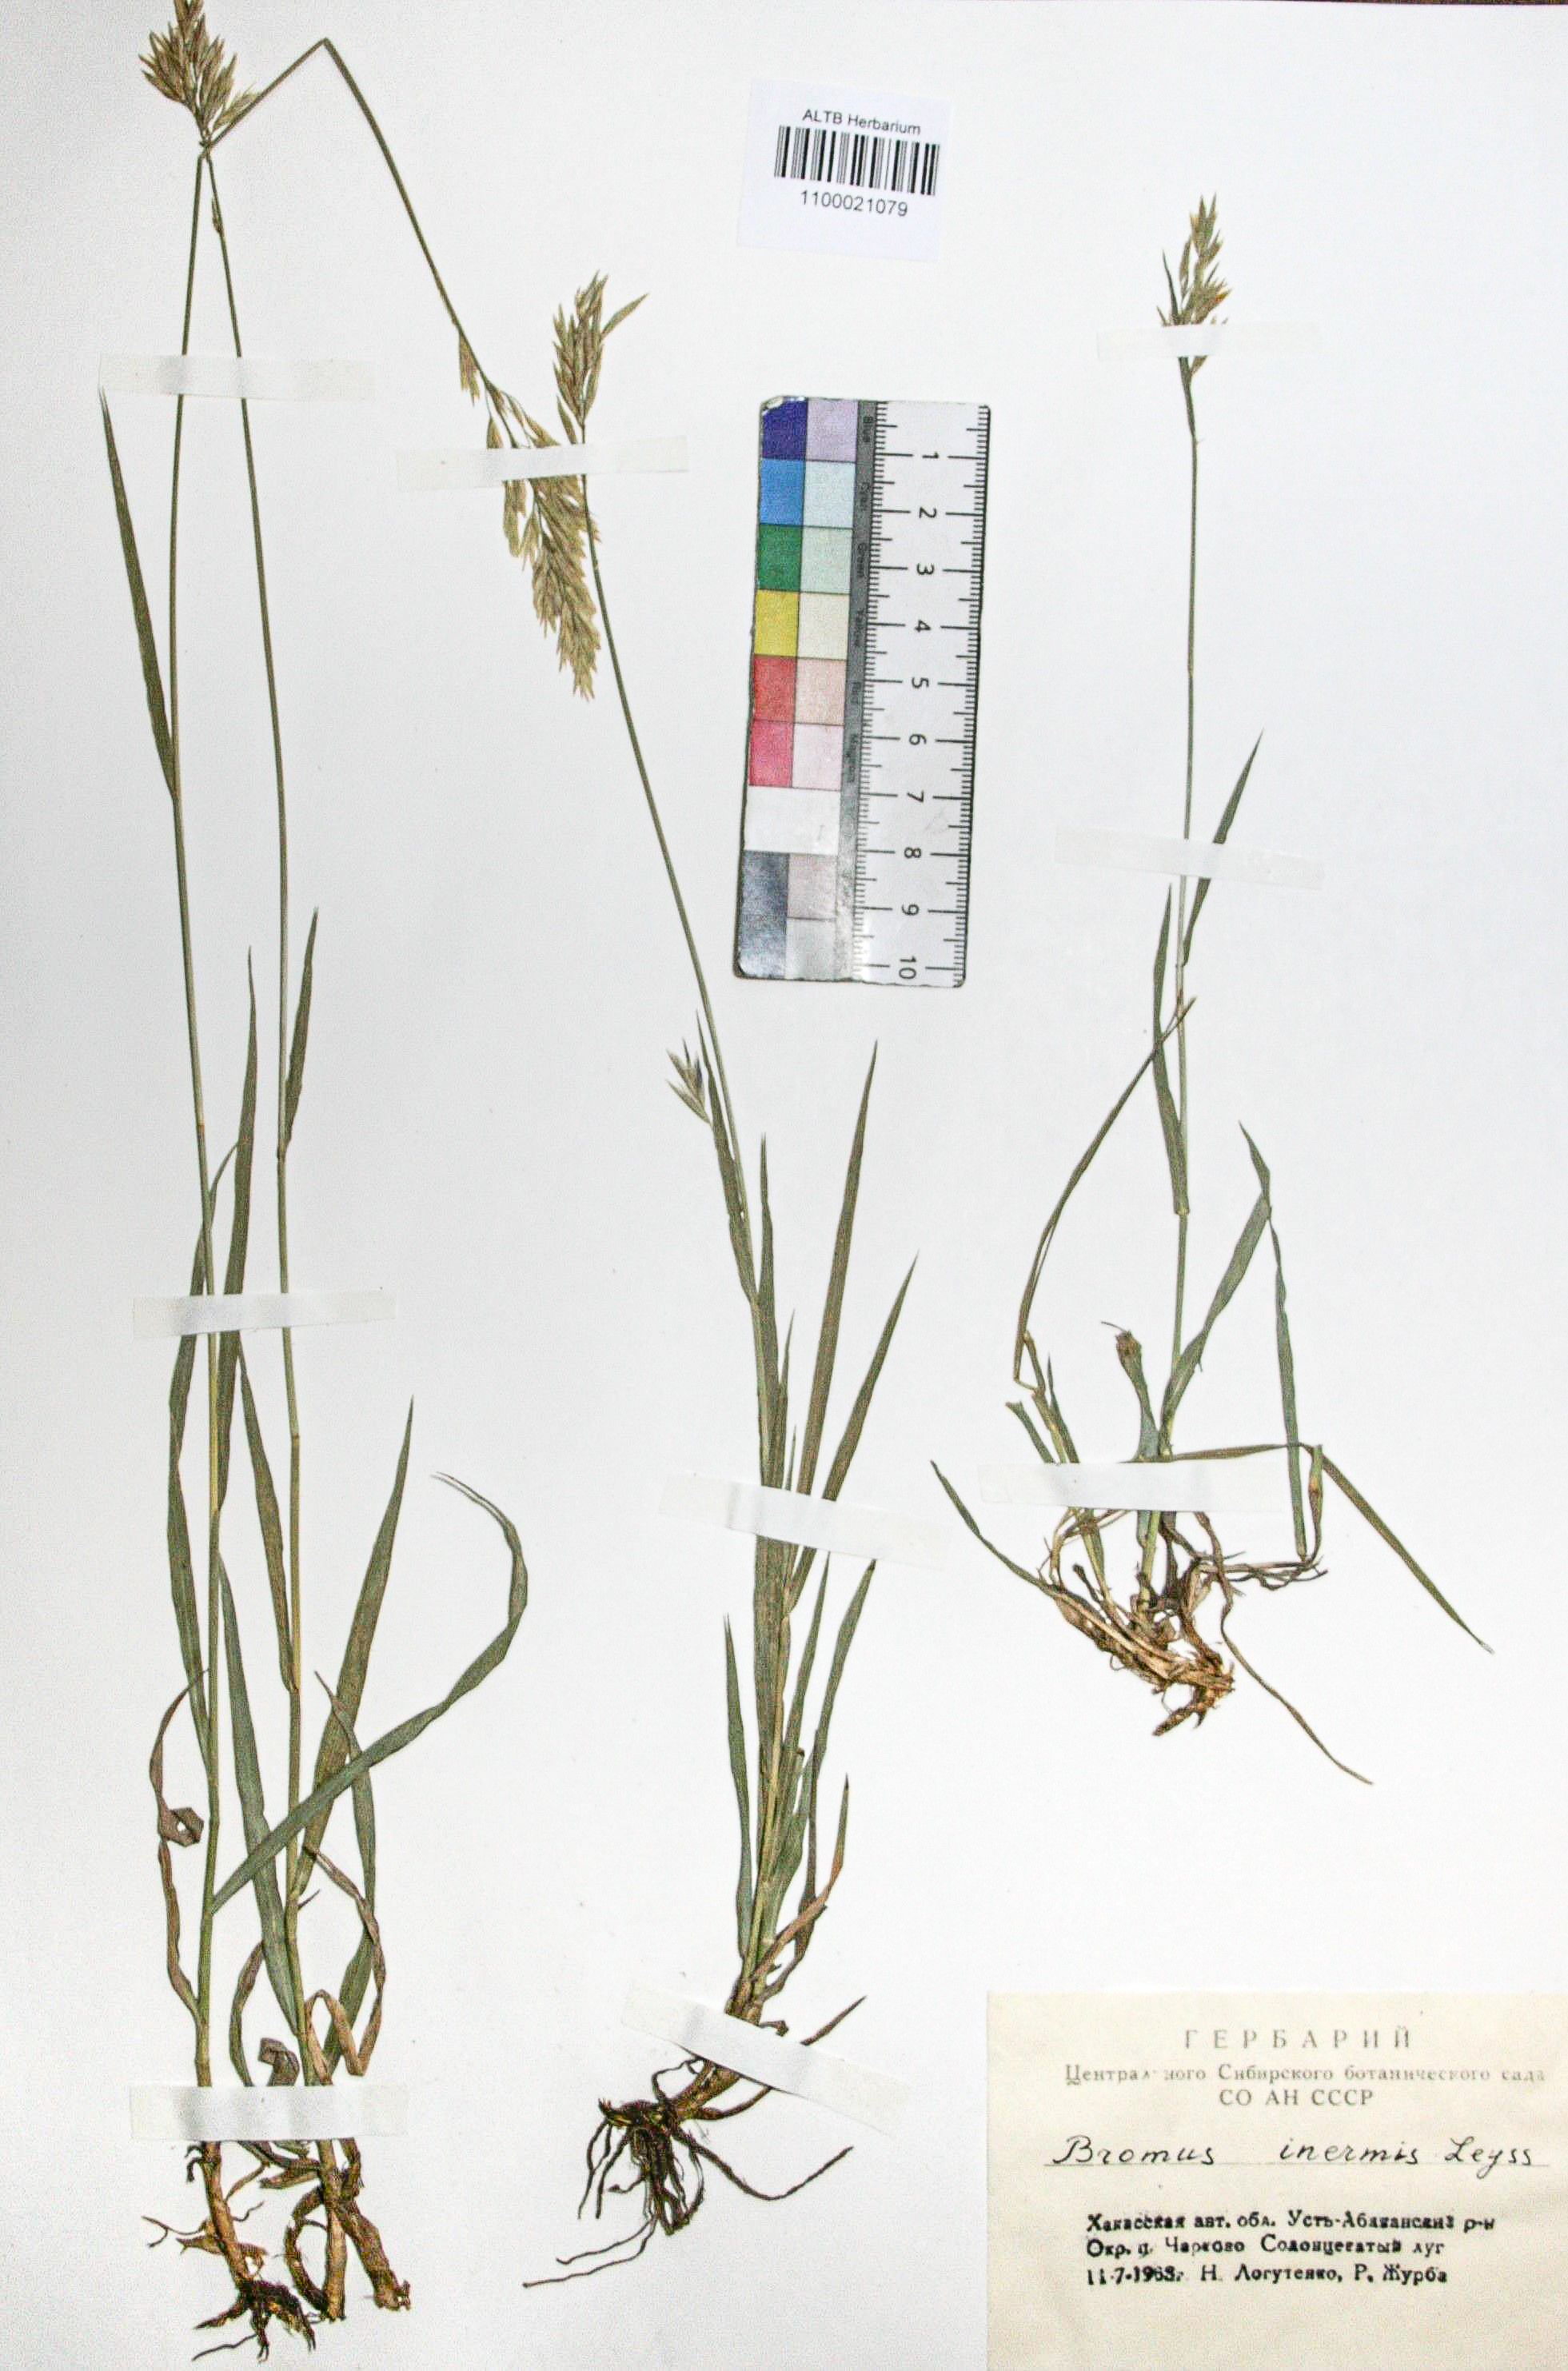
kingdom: Plantae
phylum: Tracheophyta
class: Liliopsida
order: Poales
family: Poaceae
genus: Bromus
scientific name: Bromus inermis
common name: Smooth brome
